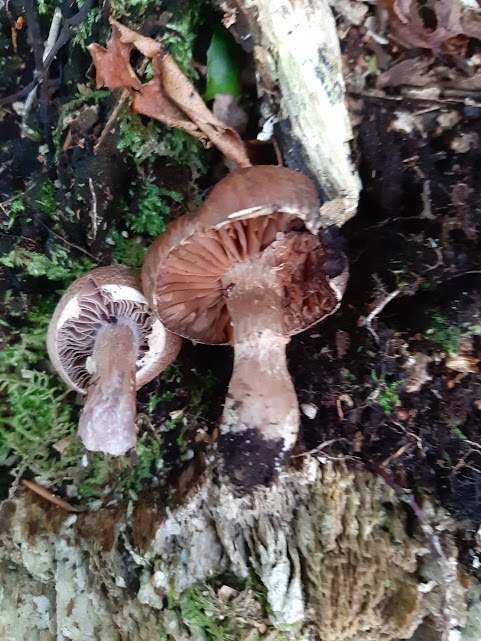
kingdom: Fungi
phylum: Basidiomycota
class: Agaricomycetes
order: Agaricales
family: Cortinariaceae
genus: Cortinarius
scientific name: Cortinarius
